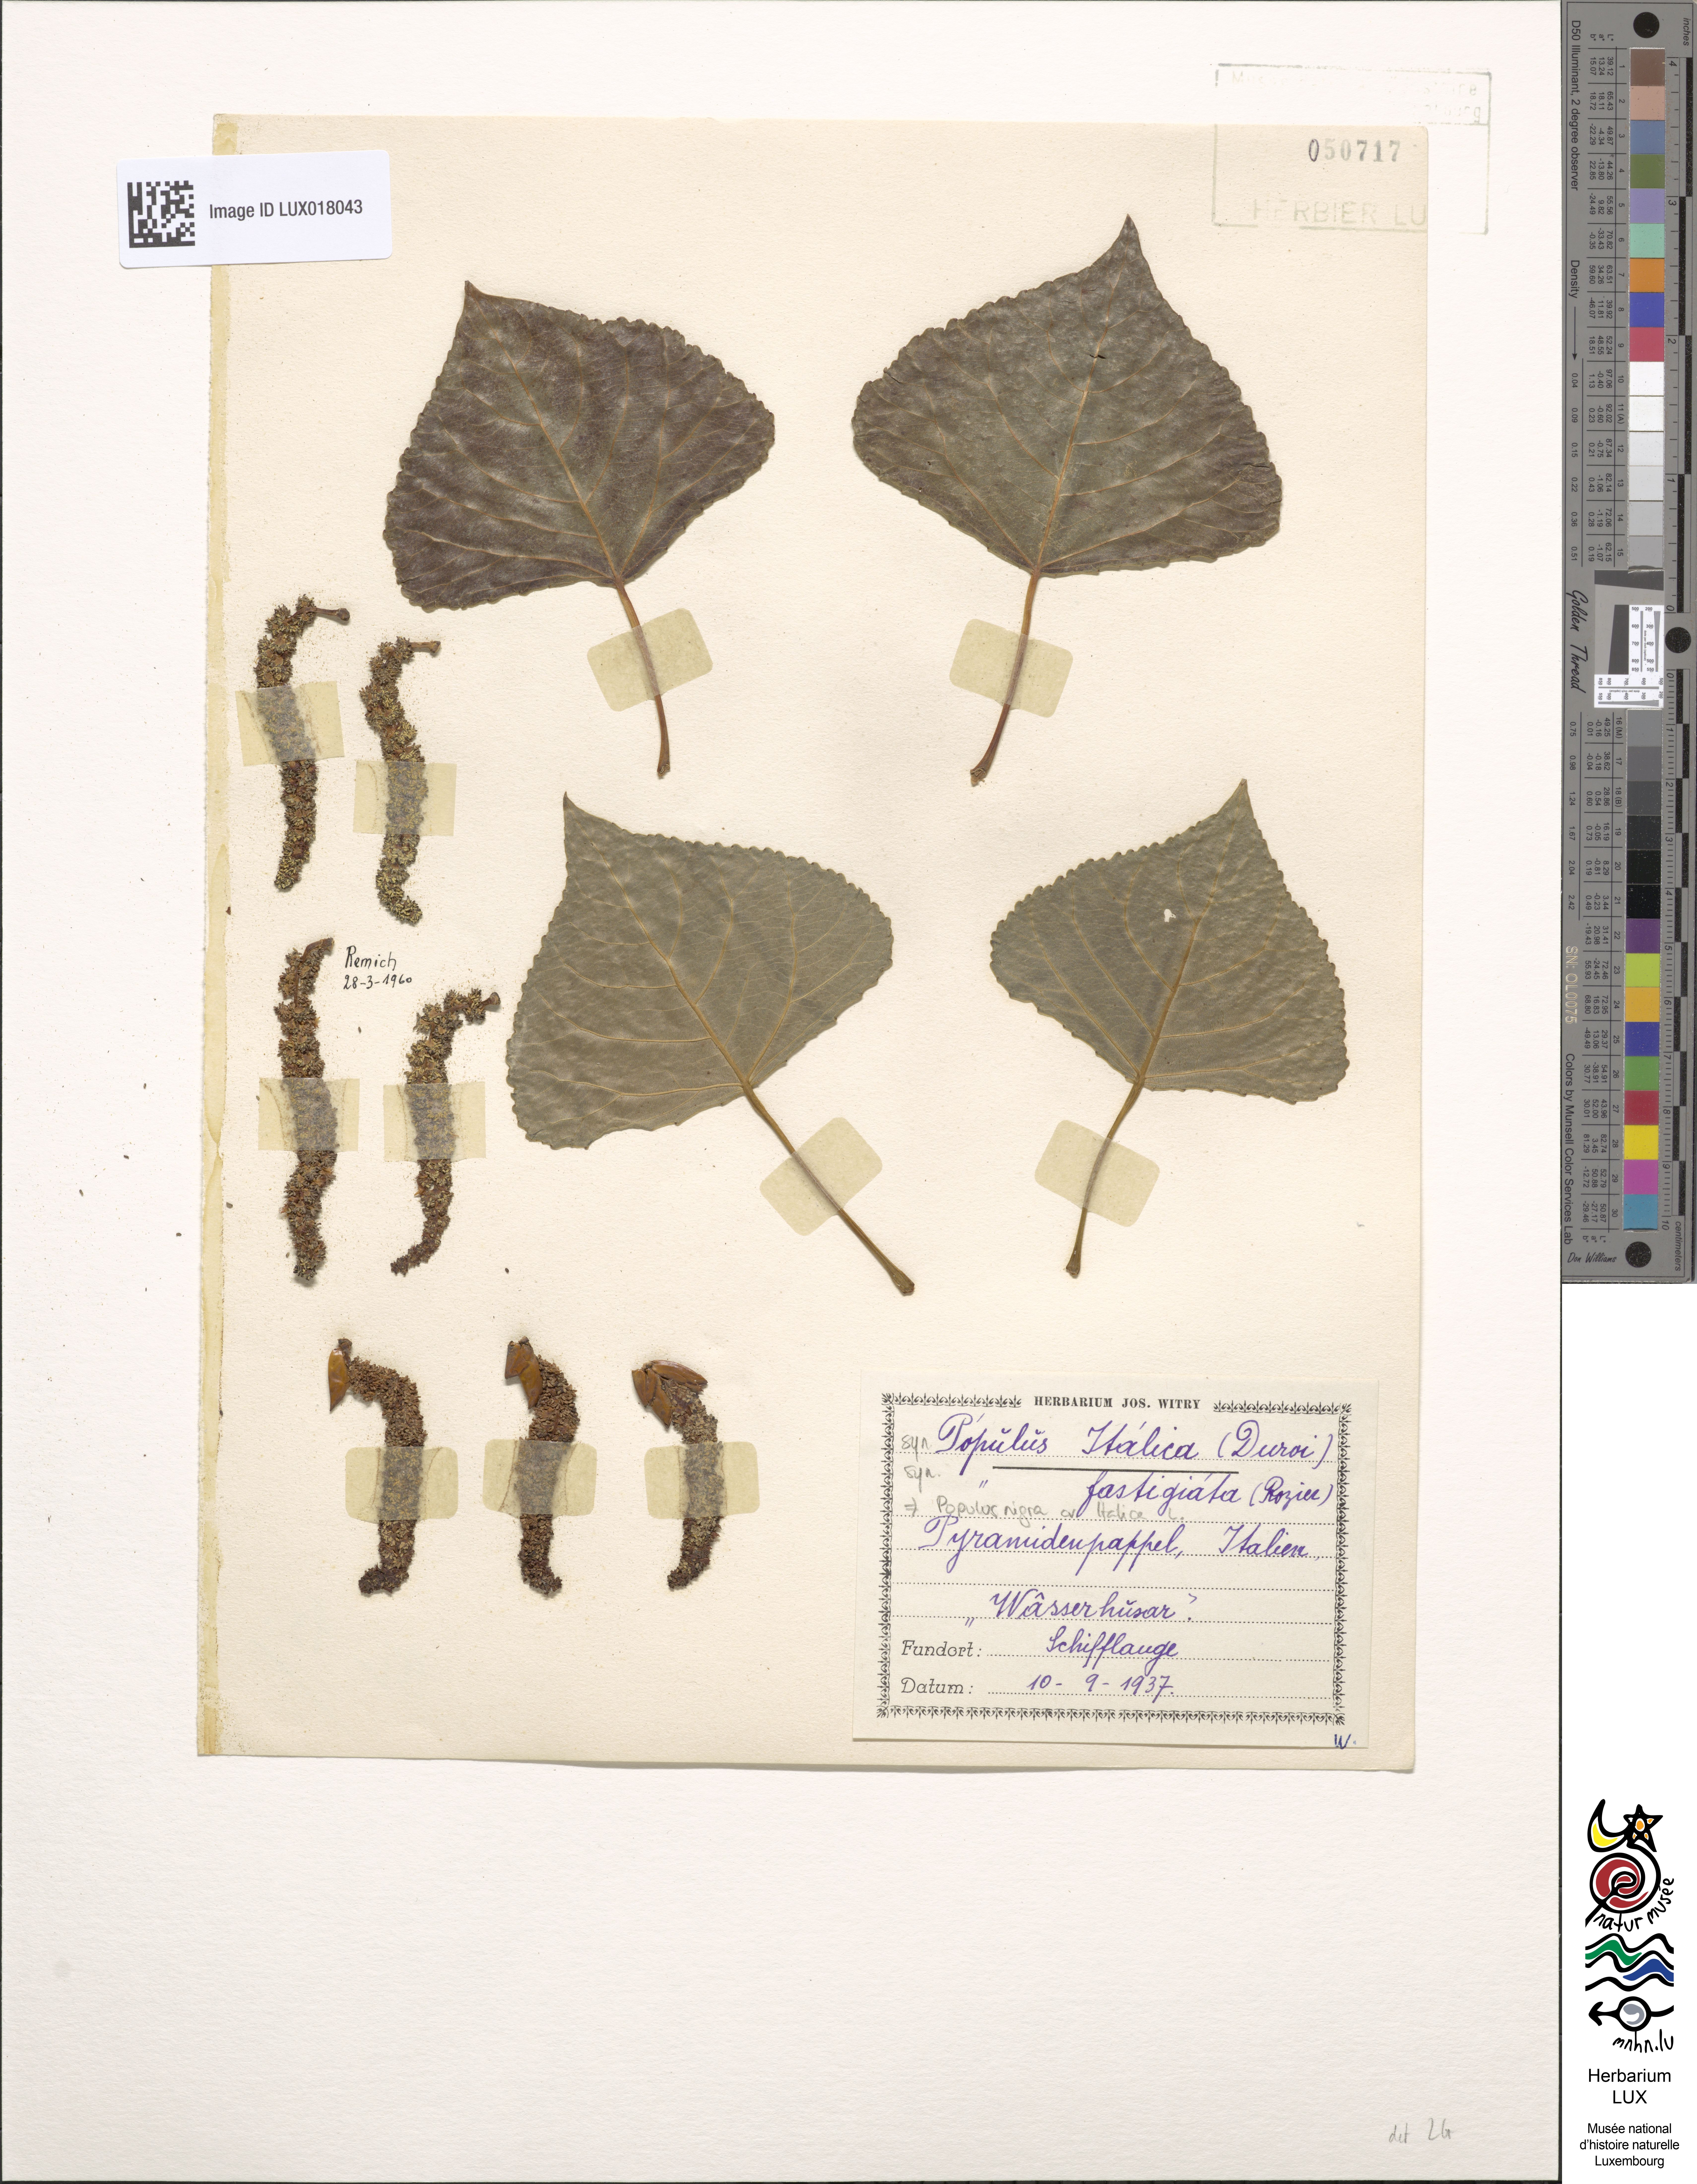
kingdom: Plantae
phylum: Tracheophyta
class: Magnoliopsida
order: Malpighiales
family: Salicaceae
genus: Populus
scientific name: Populus nigra
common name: Black poplar
